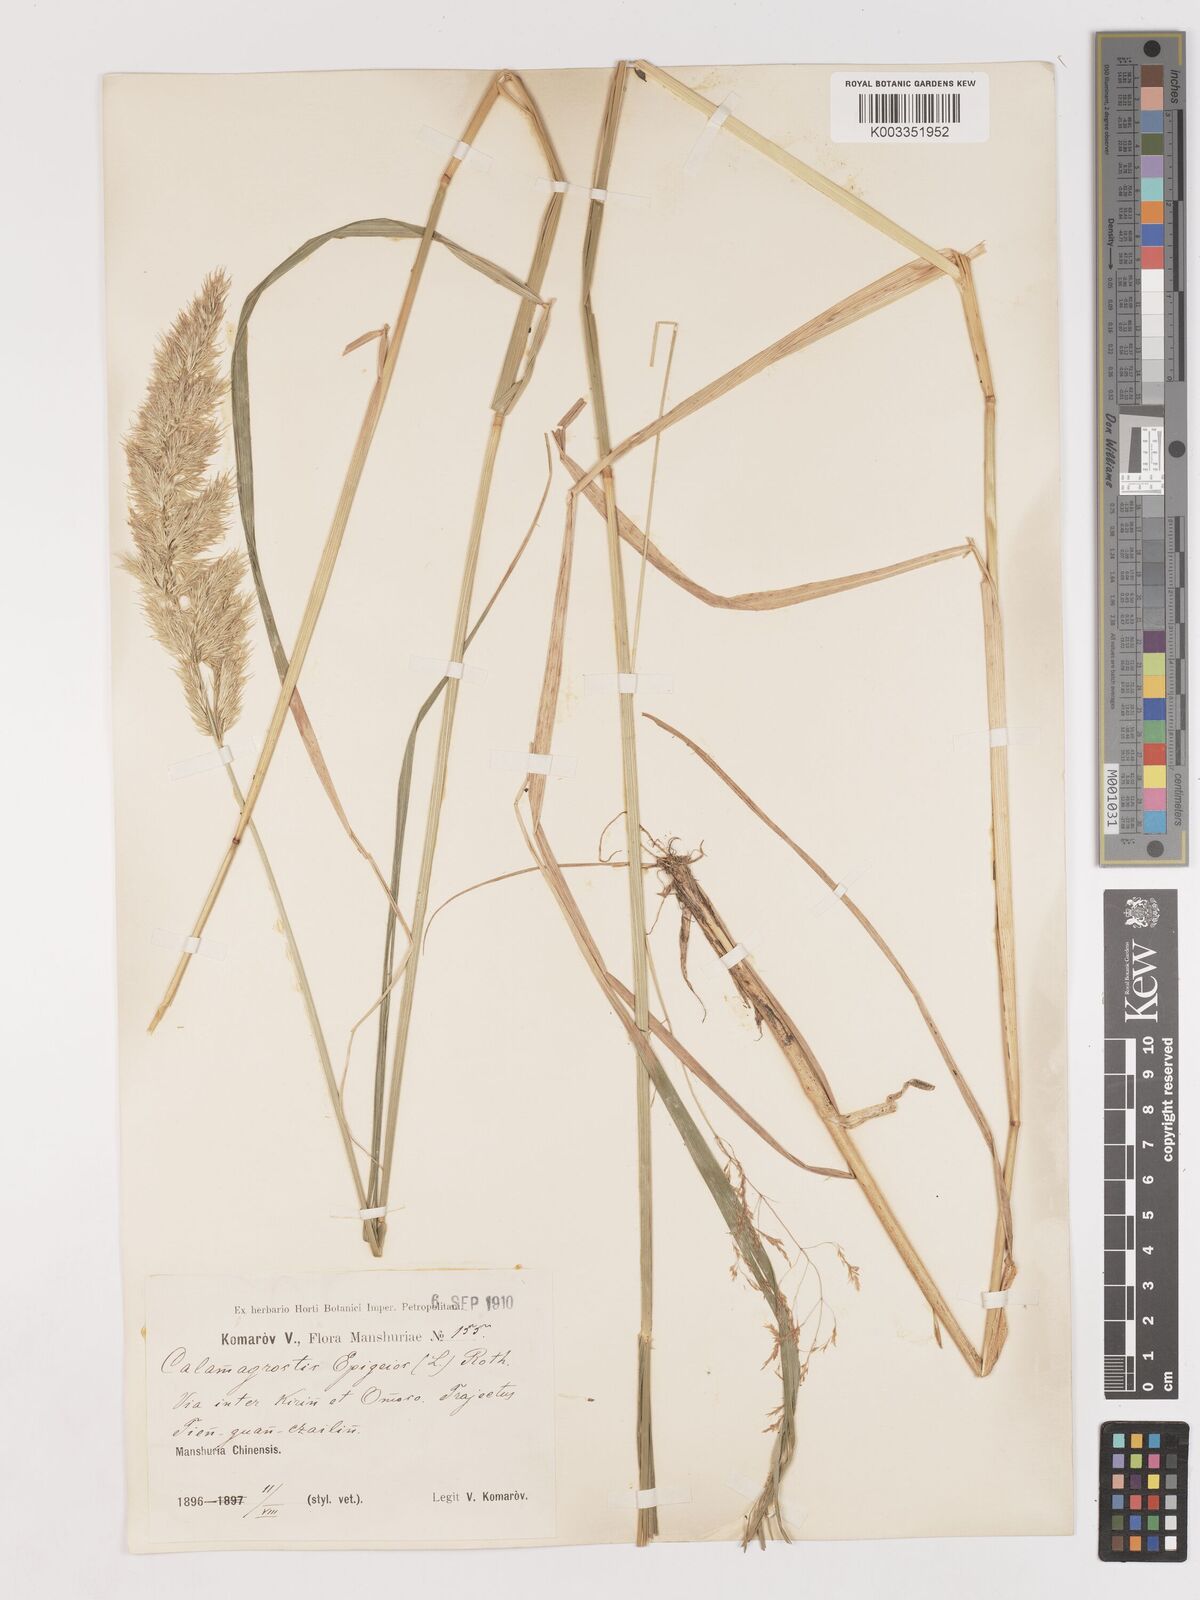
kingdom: Plantae
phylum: Tracheophyta
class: Liliopsida
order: Poales
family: Poaceae
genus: Calamagrostis
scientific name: Calamagrostis epigejos
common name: Wood small-reed
